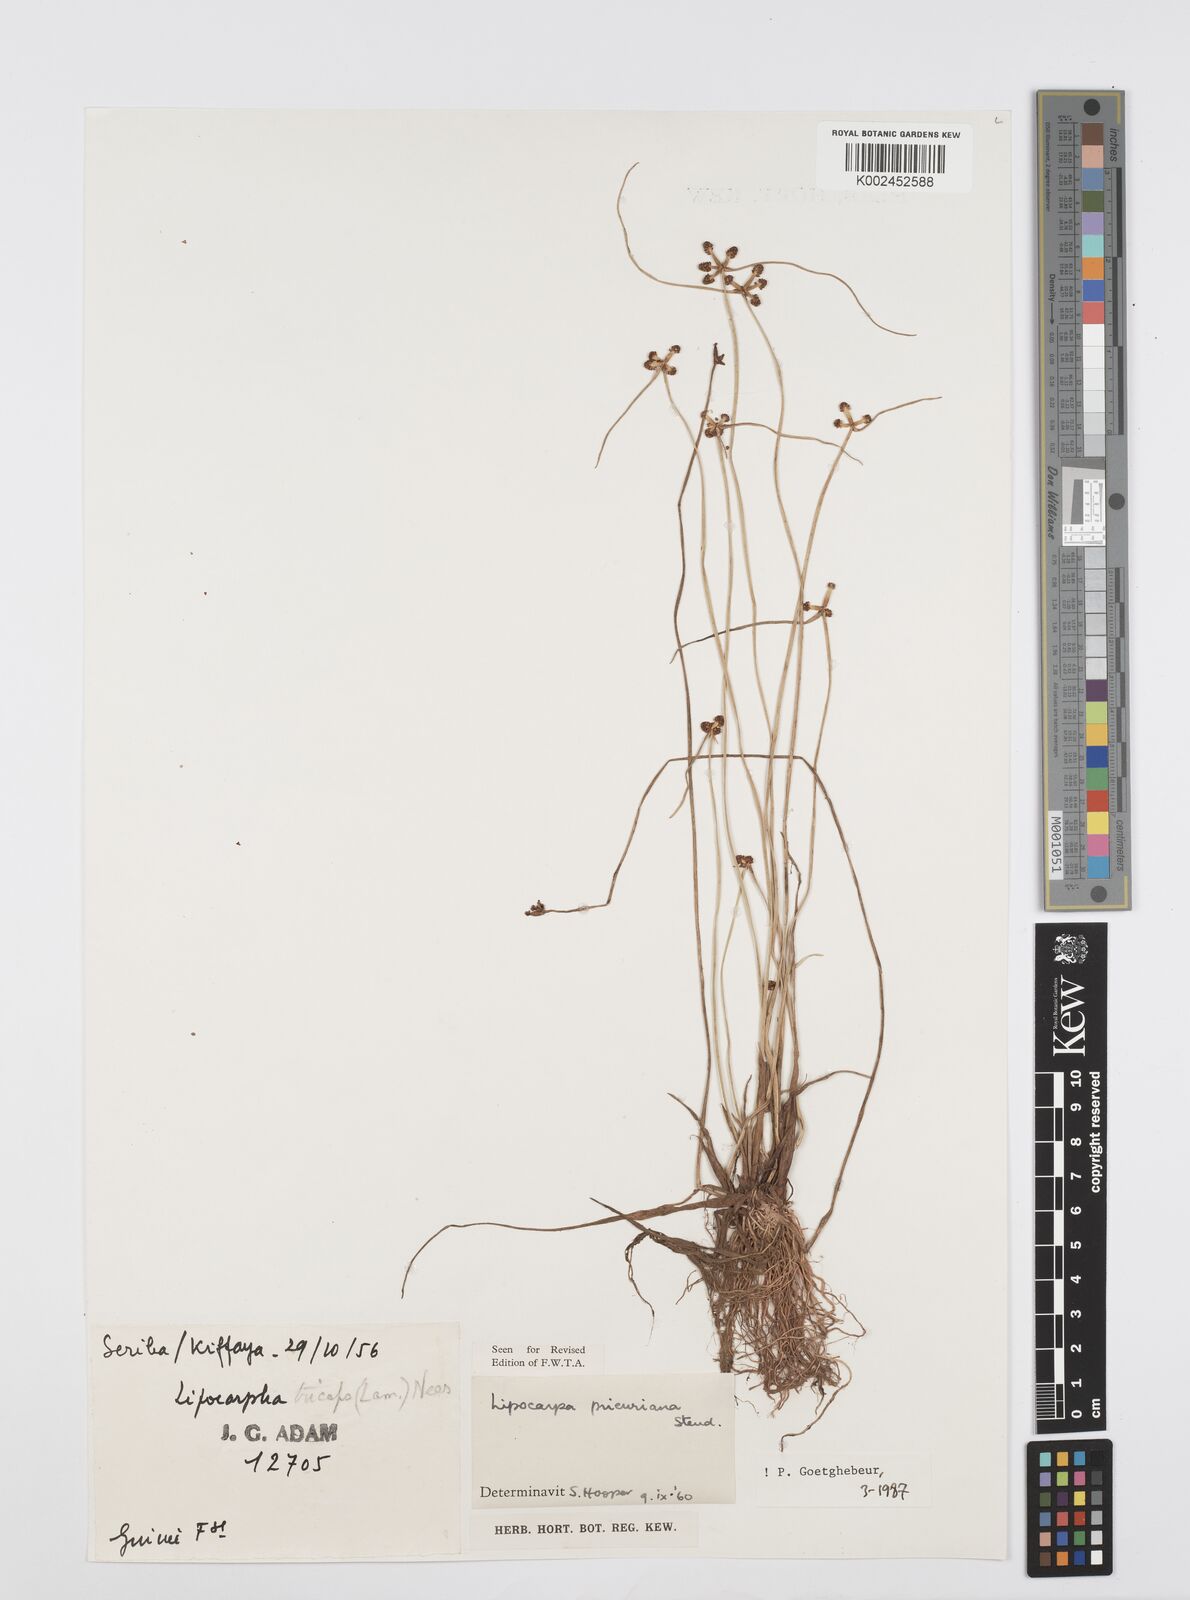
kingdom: Plantae
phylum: Tracheophyta
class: Liliopsida
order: Poales
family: Cyperaceae
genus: Cyperus
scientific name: Cyperus prieurianus
